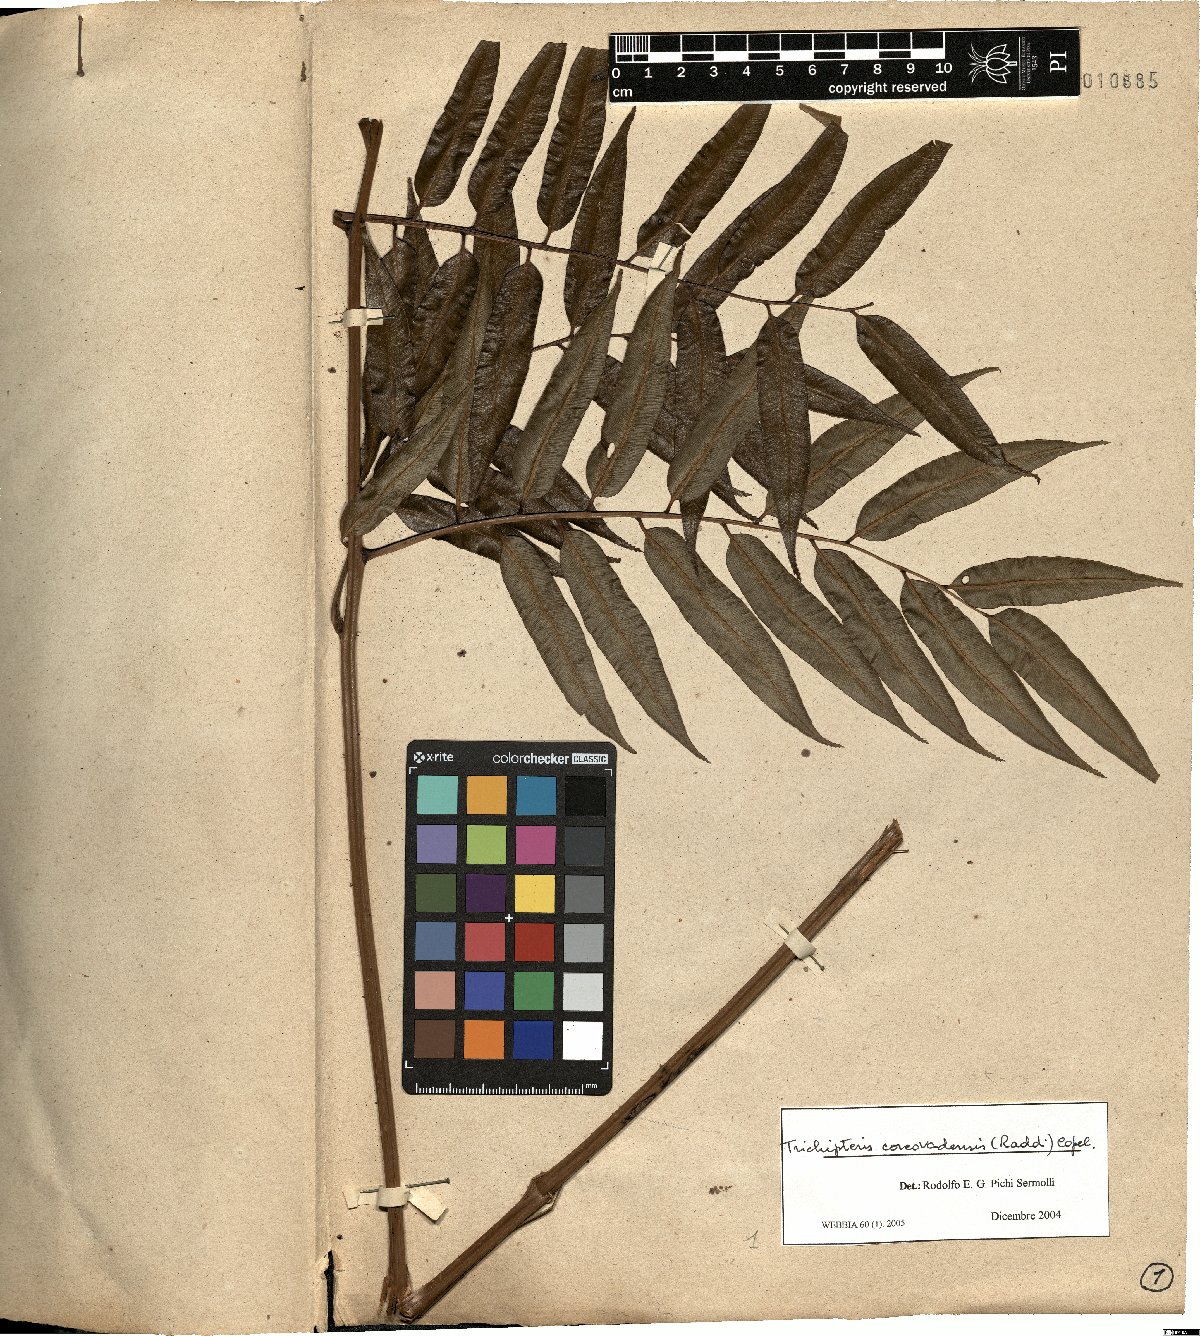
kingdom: Plantae
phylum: Tracheophyta
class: Polypodiopsida
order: Cyatheales
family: Cyatheaceae
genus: Cyathea
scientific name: Cyathea corcovadensis
